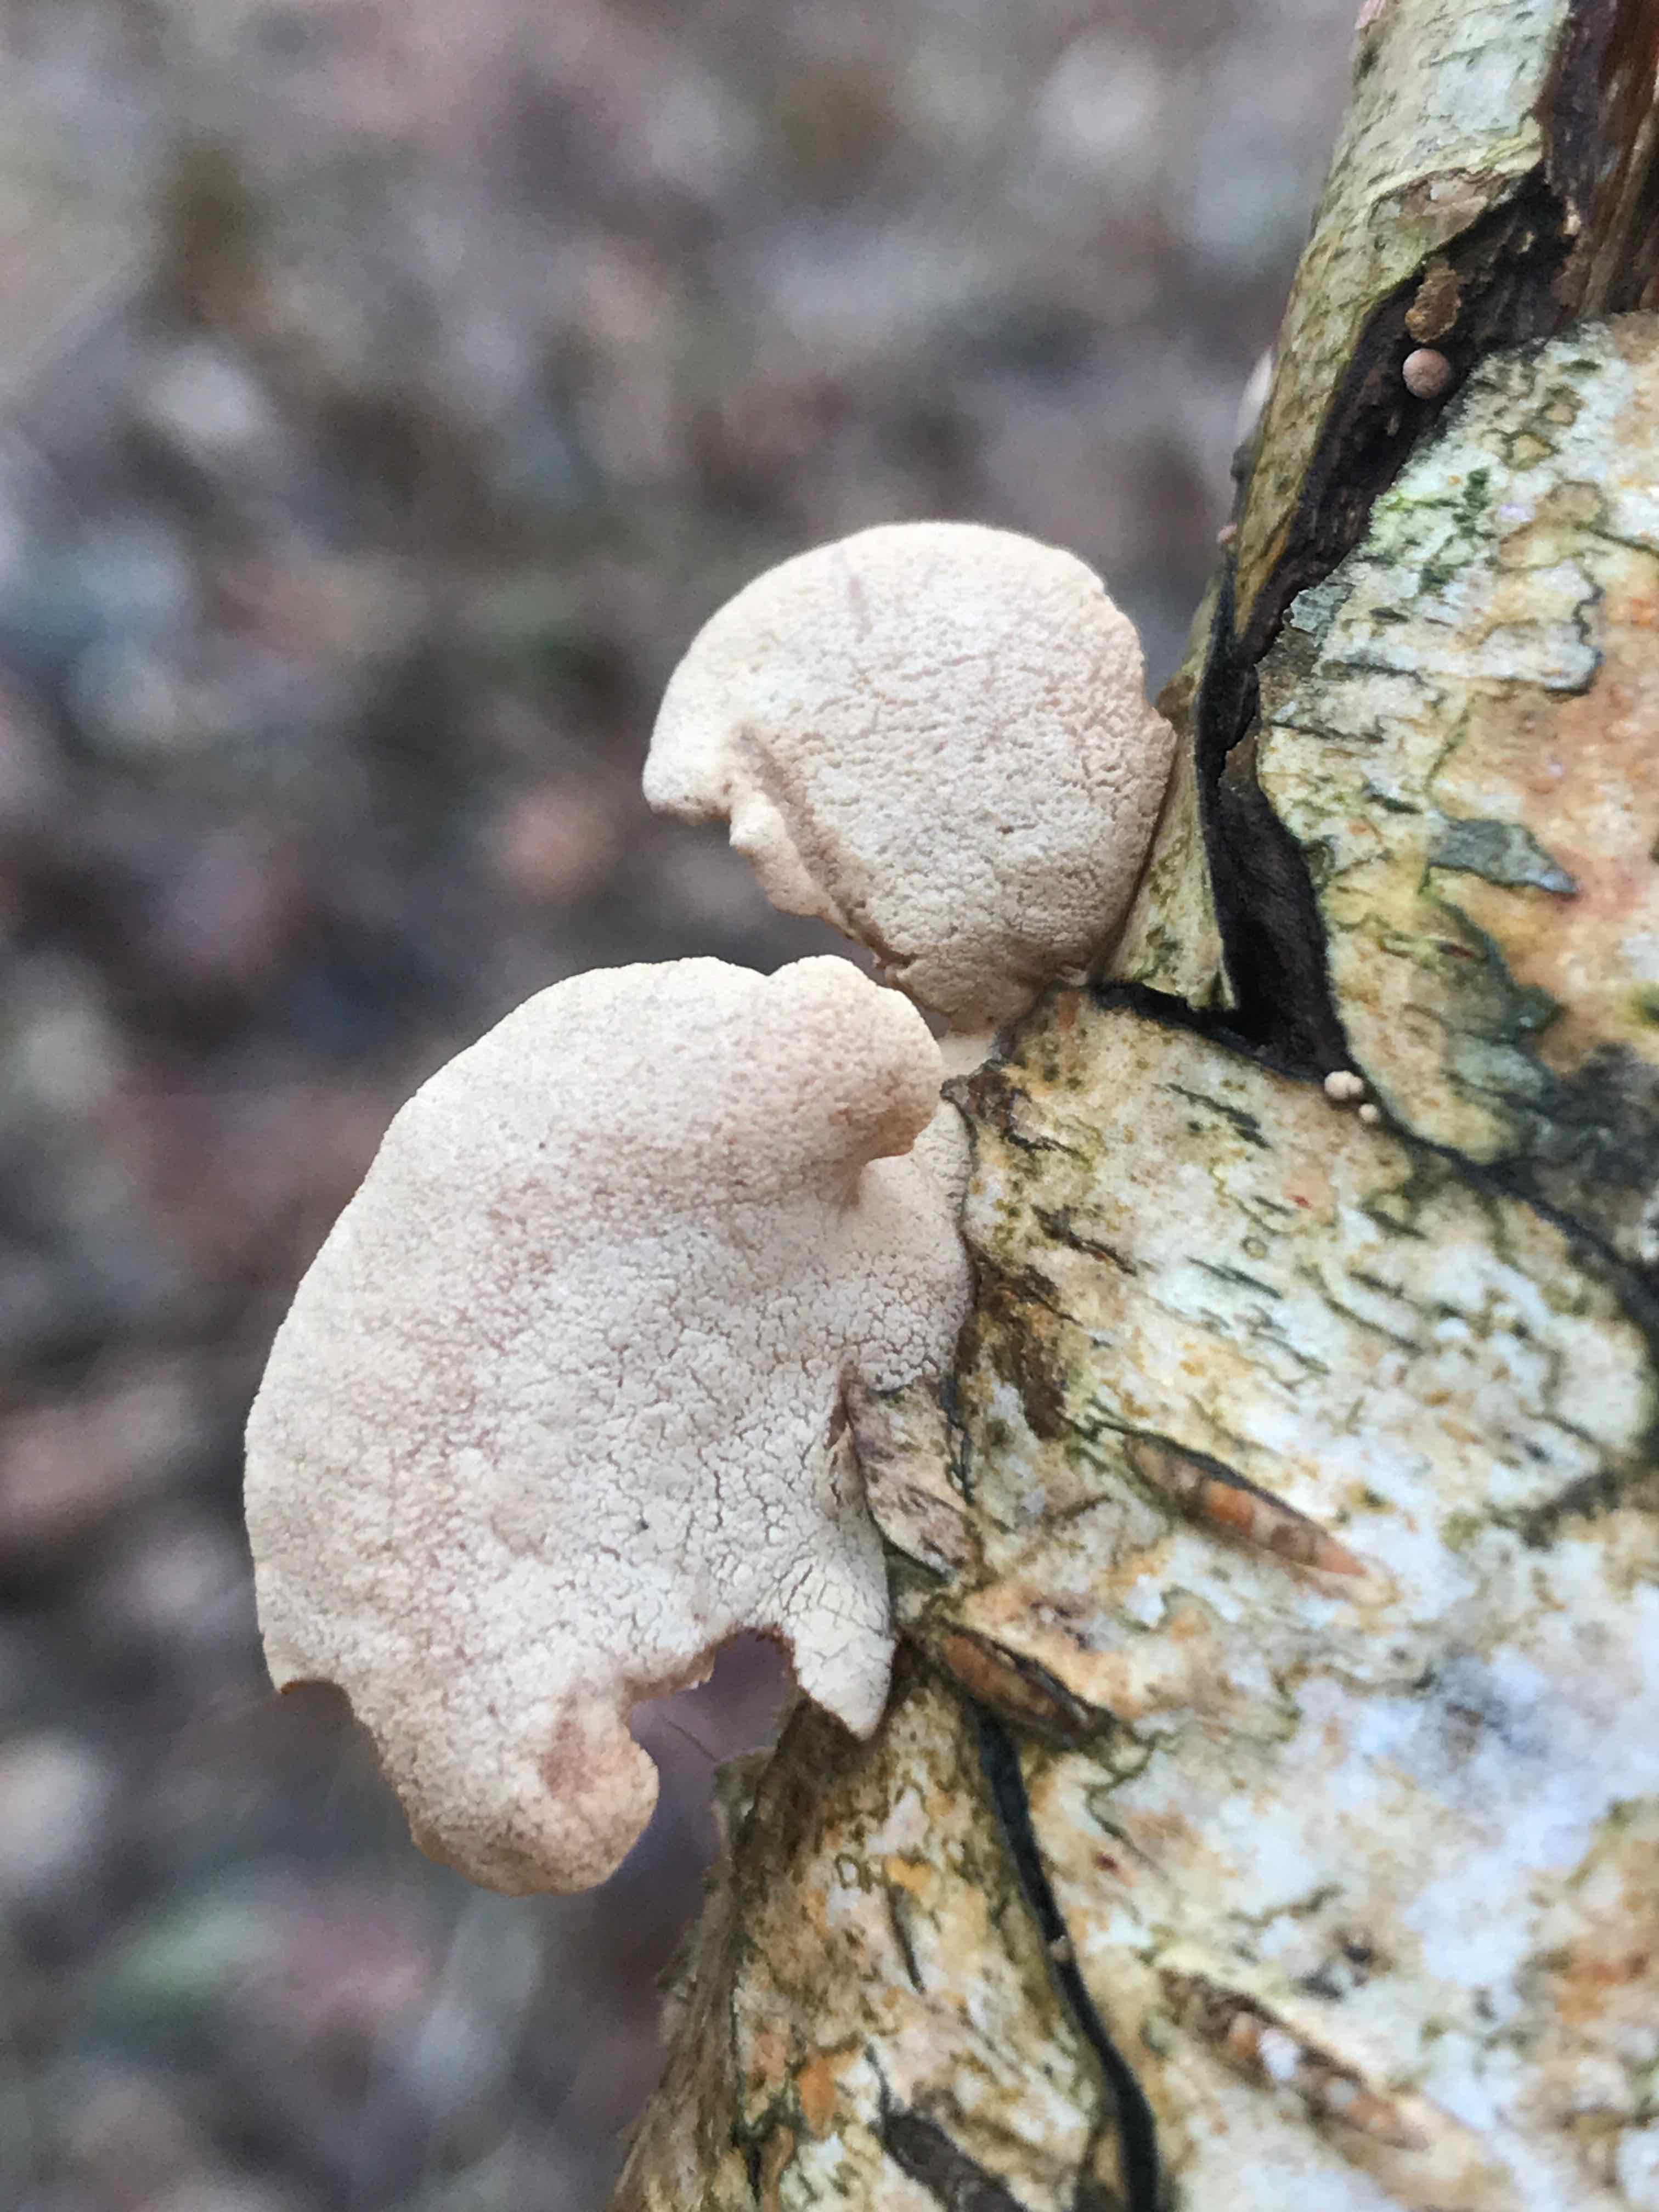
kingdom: Fungi
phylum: Basidiomycota
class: Agaricomycetes
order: Agaricales
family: Mycenaceae
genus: Panellus
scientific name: Panellus stipticus
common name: kliddet epaulethat
